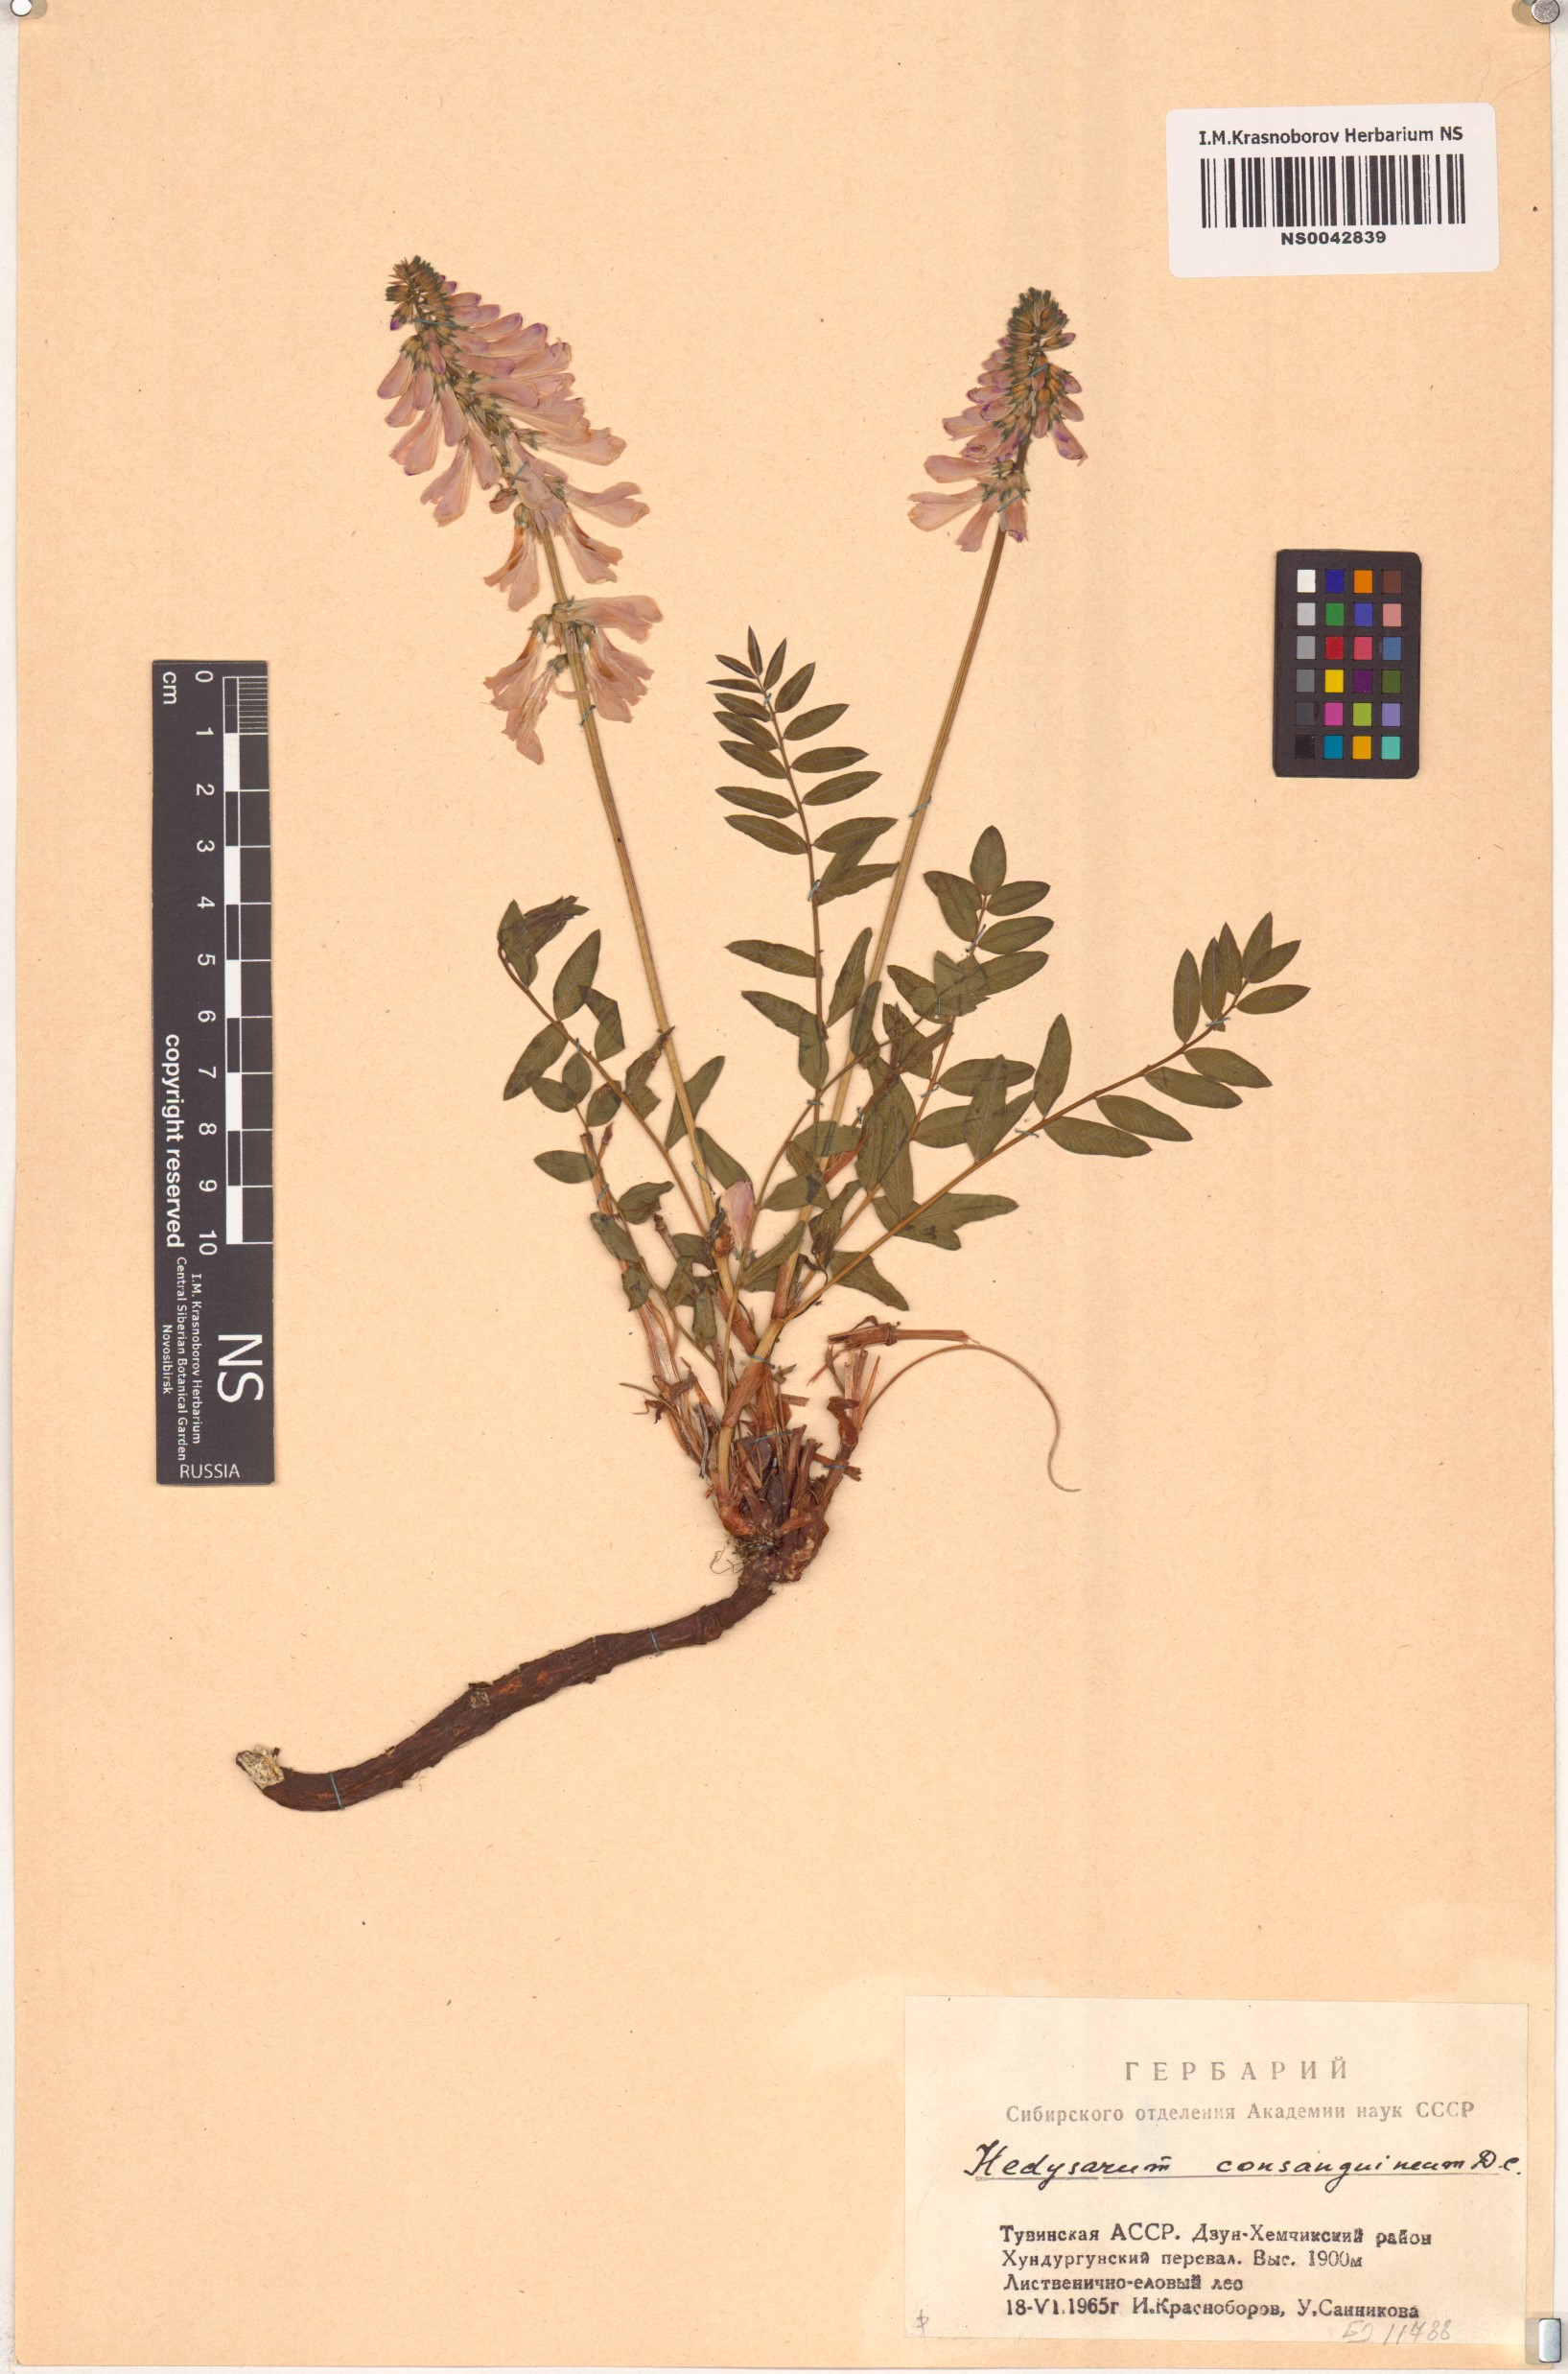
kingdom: Plantae
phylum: Tracheophyta
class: Magnoliopsida
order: Fabales
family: Fabaceae
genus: Hedysarum
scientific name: Hedysarum consanguineum
